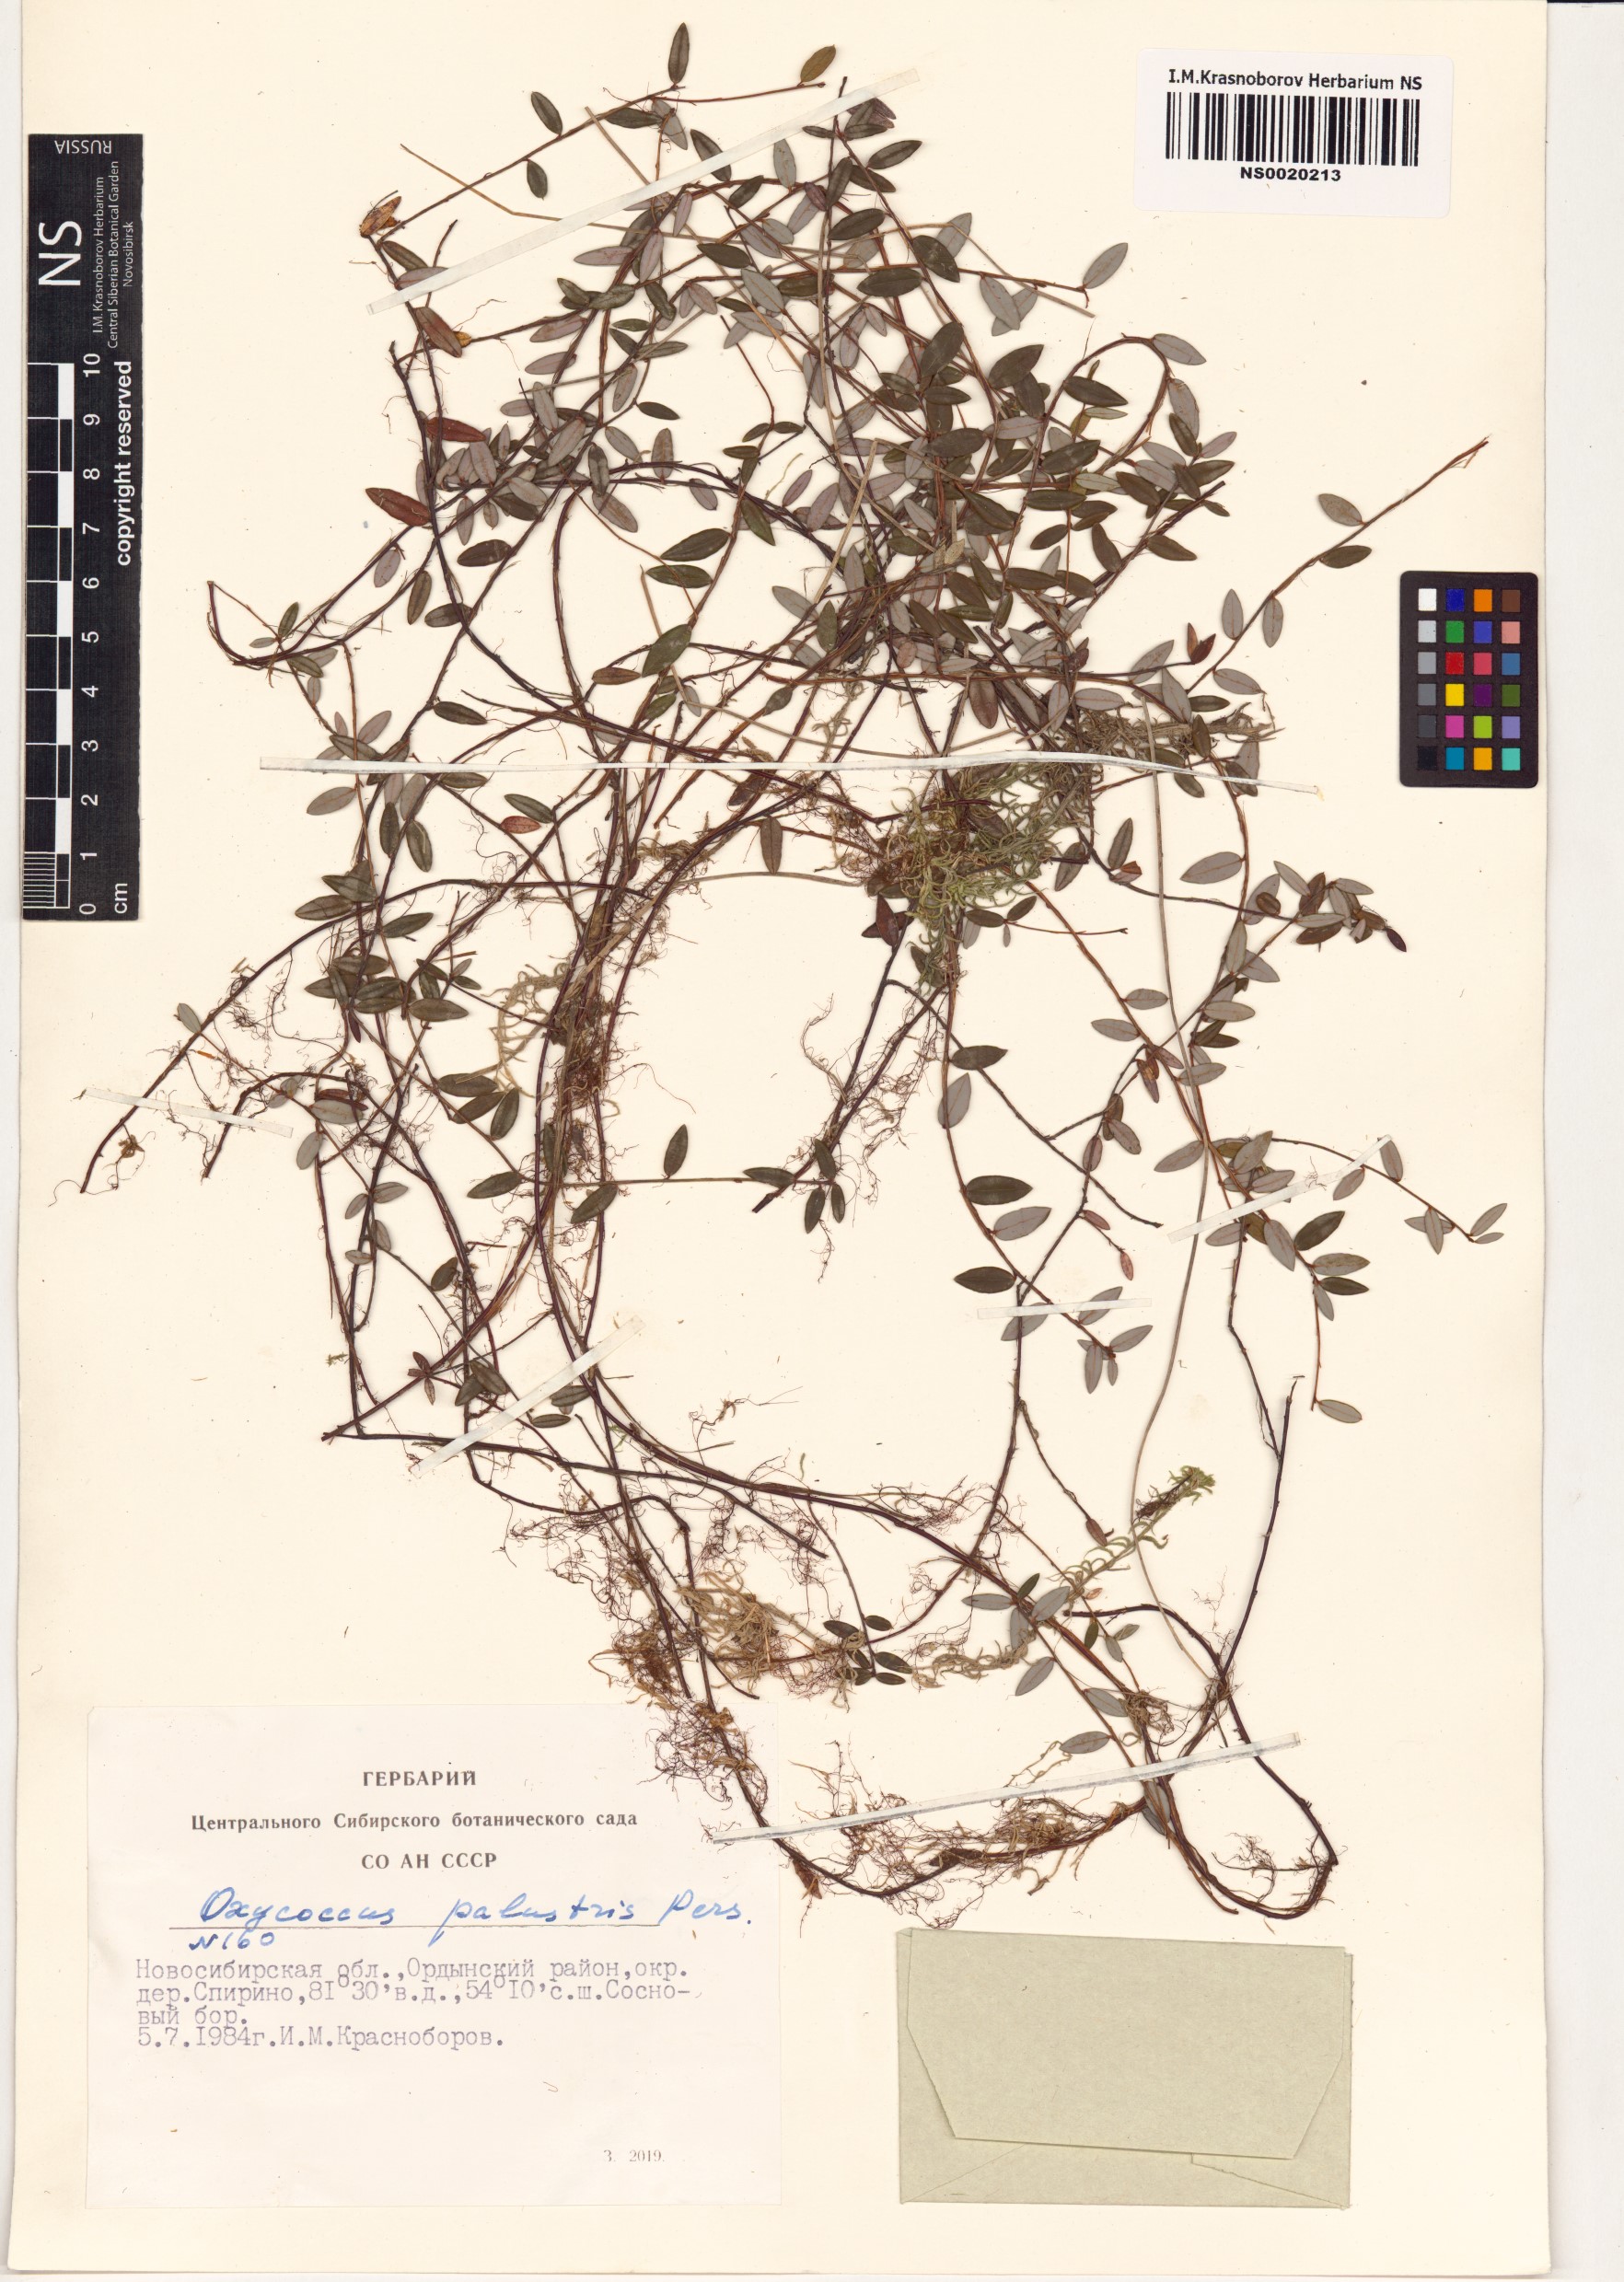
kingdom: Plantae
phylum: Tracheophyta
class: Magnoliopsida
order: Ericales
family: Ericaceae
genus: Vaccinium
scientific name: Vaccinium oxycoccos
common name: Cranberry
